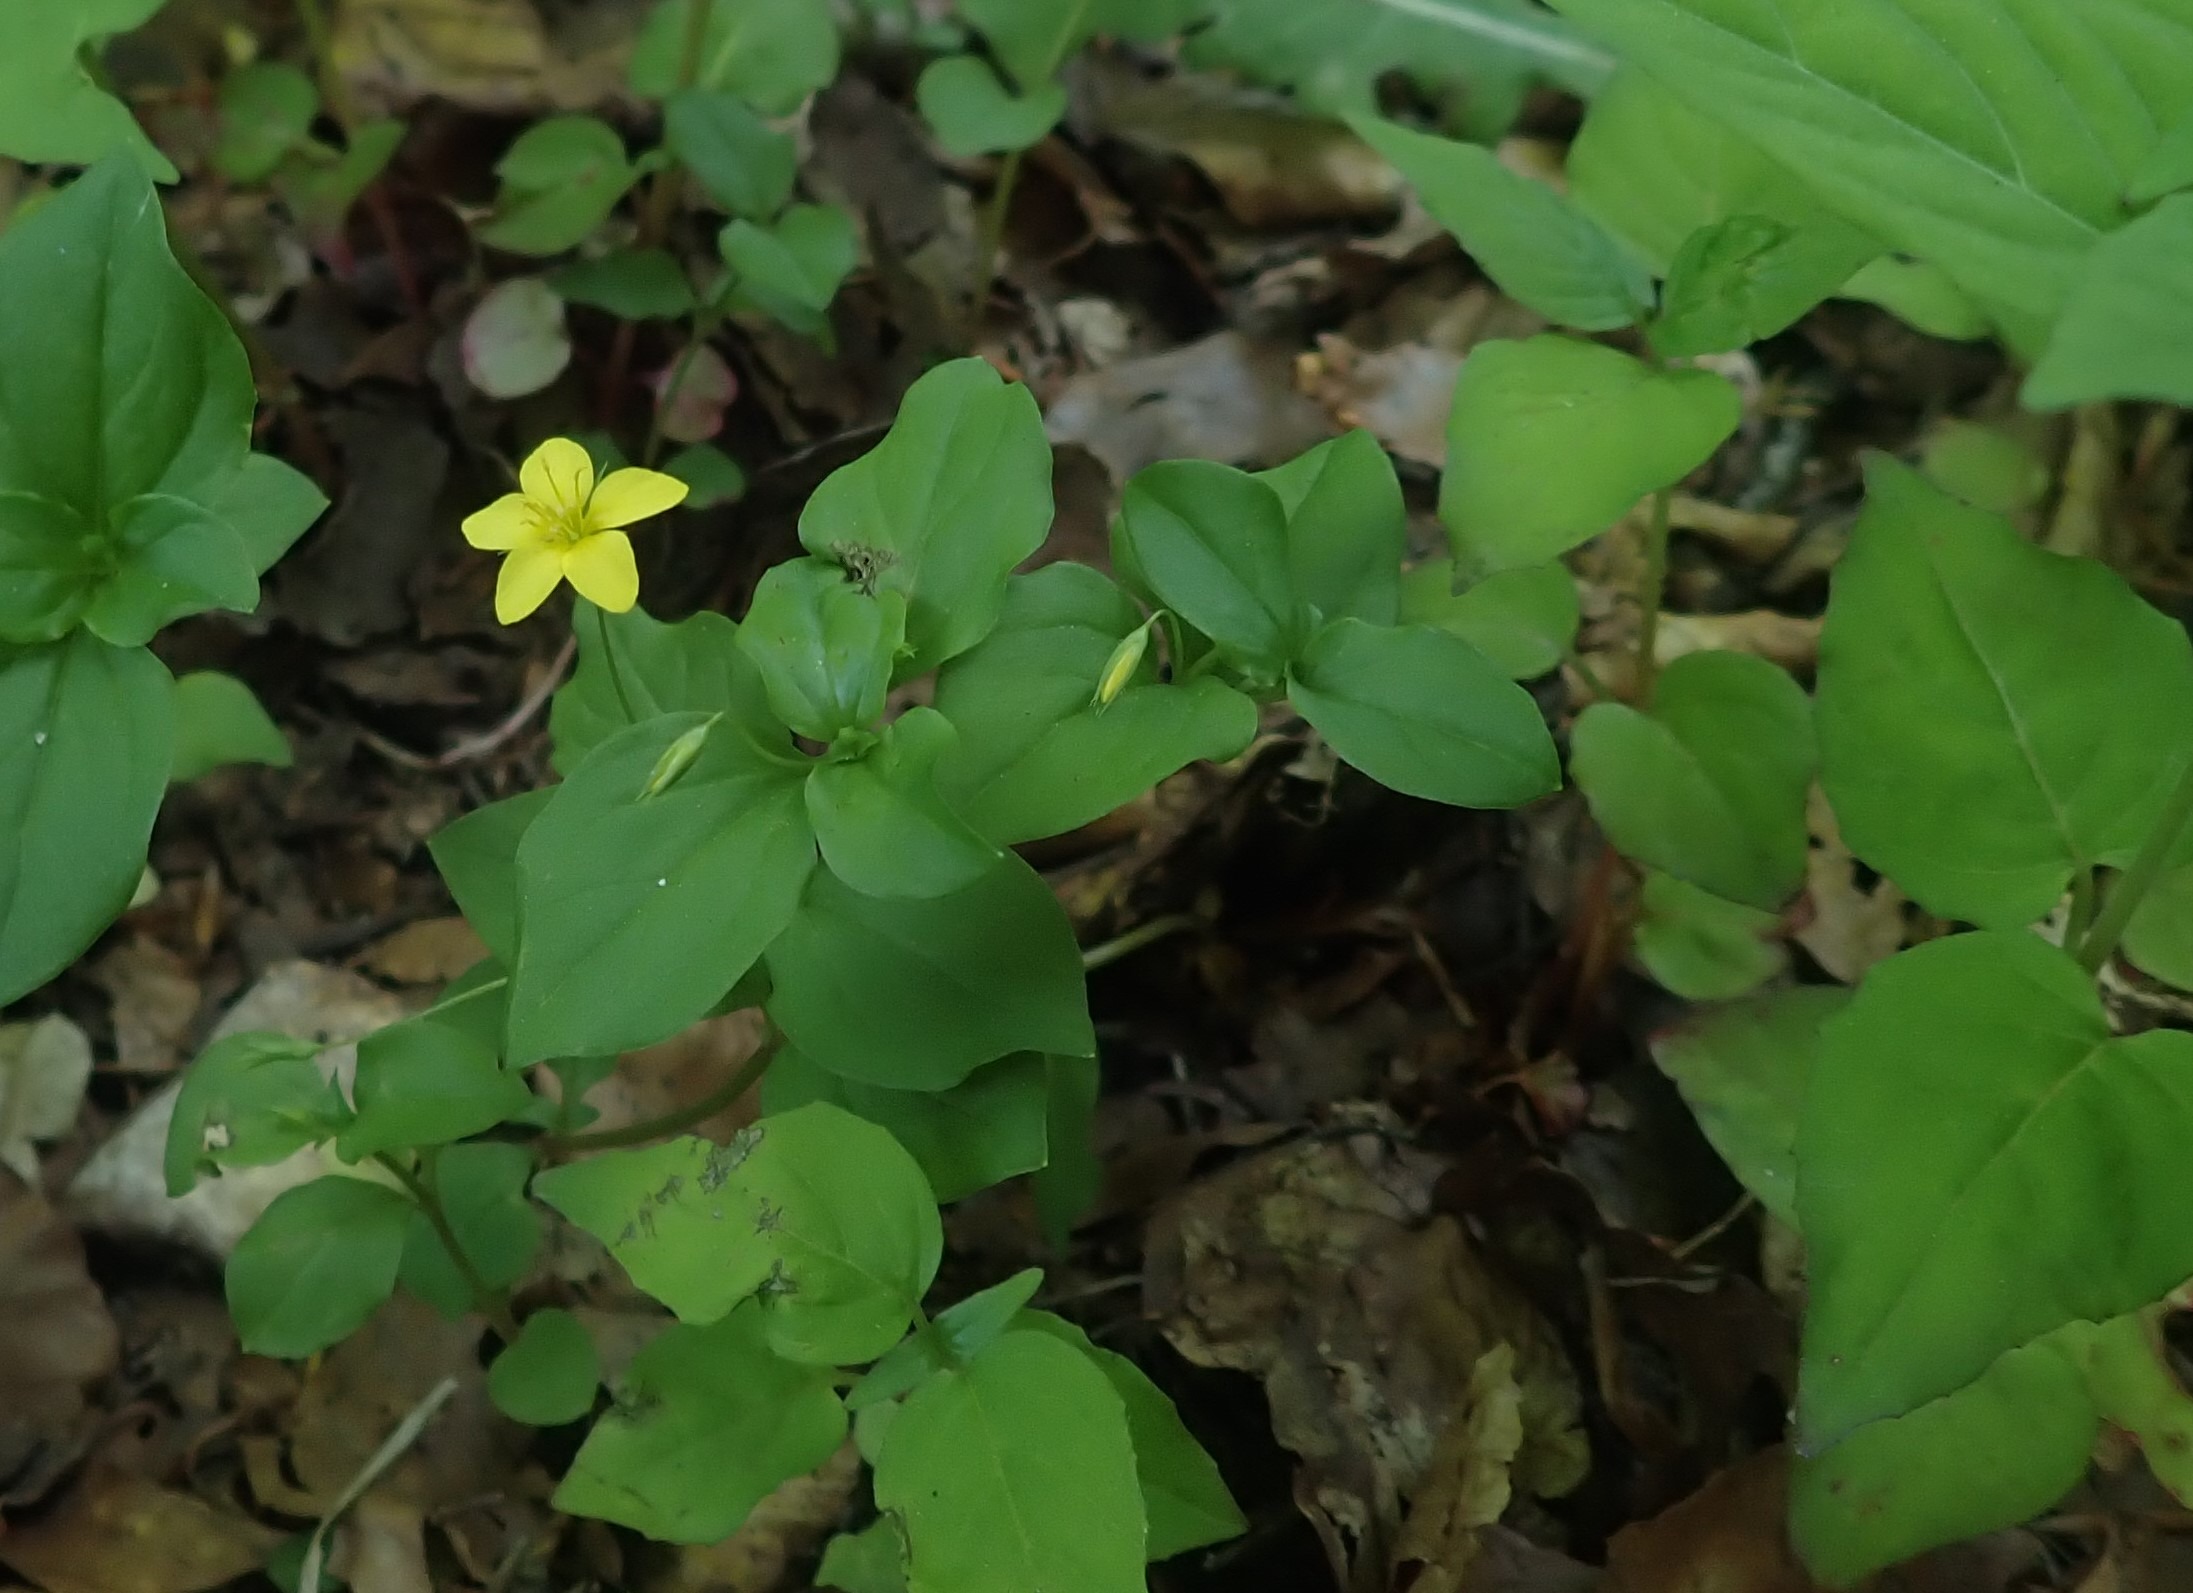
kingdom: Plantae
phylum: Tracheophyta
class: Magnoliopsida
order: Ericales
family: Primulaceae
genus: Lysimachia
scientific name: Lysimachia nemorum
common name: Lund-fredløs
